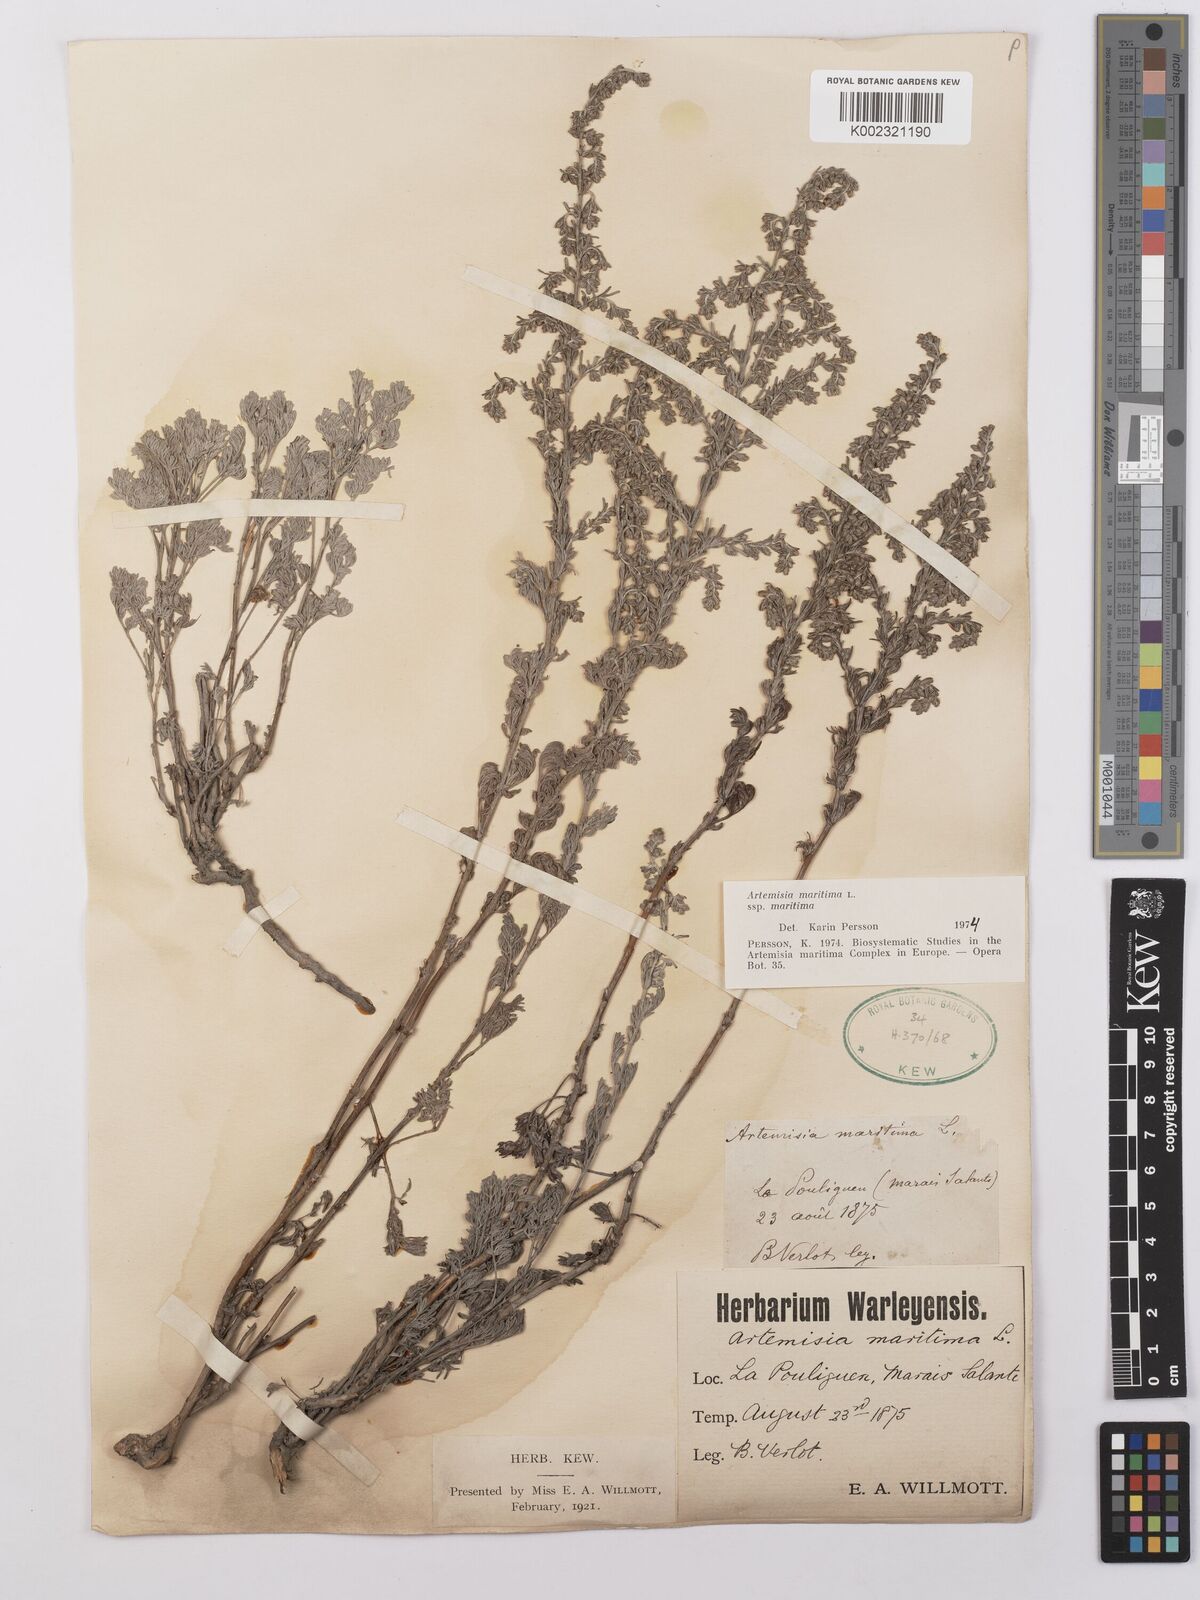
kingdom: Plantae
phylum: Tracheophyta
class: Magnoliopsida
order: Asterales
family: Asteraceae
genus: Artemisia
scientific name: Artemisia maritima
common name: Wormseed
